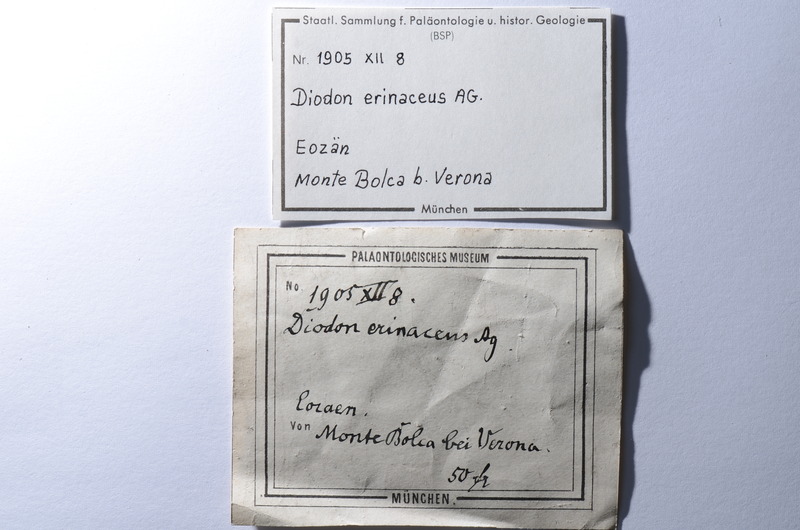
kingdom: Animalia
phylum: Chordata
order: Tetraodontiformes
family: Diodontidae
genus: Diodon
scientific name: Diodon erinaceus
